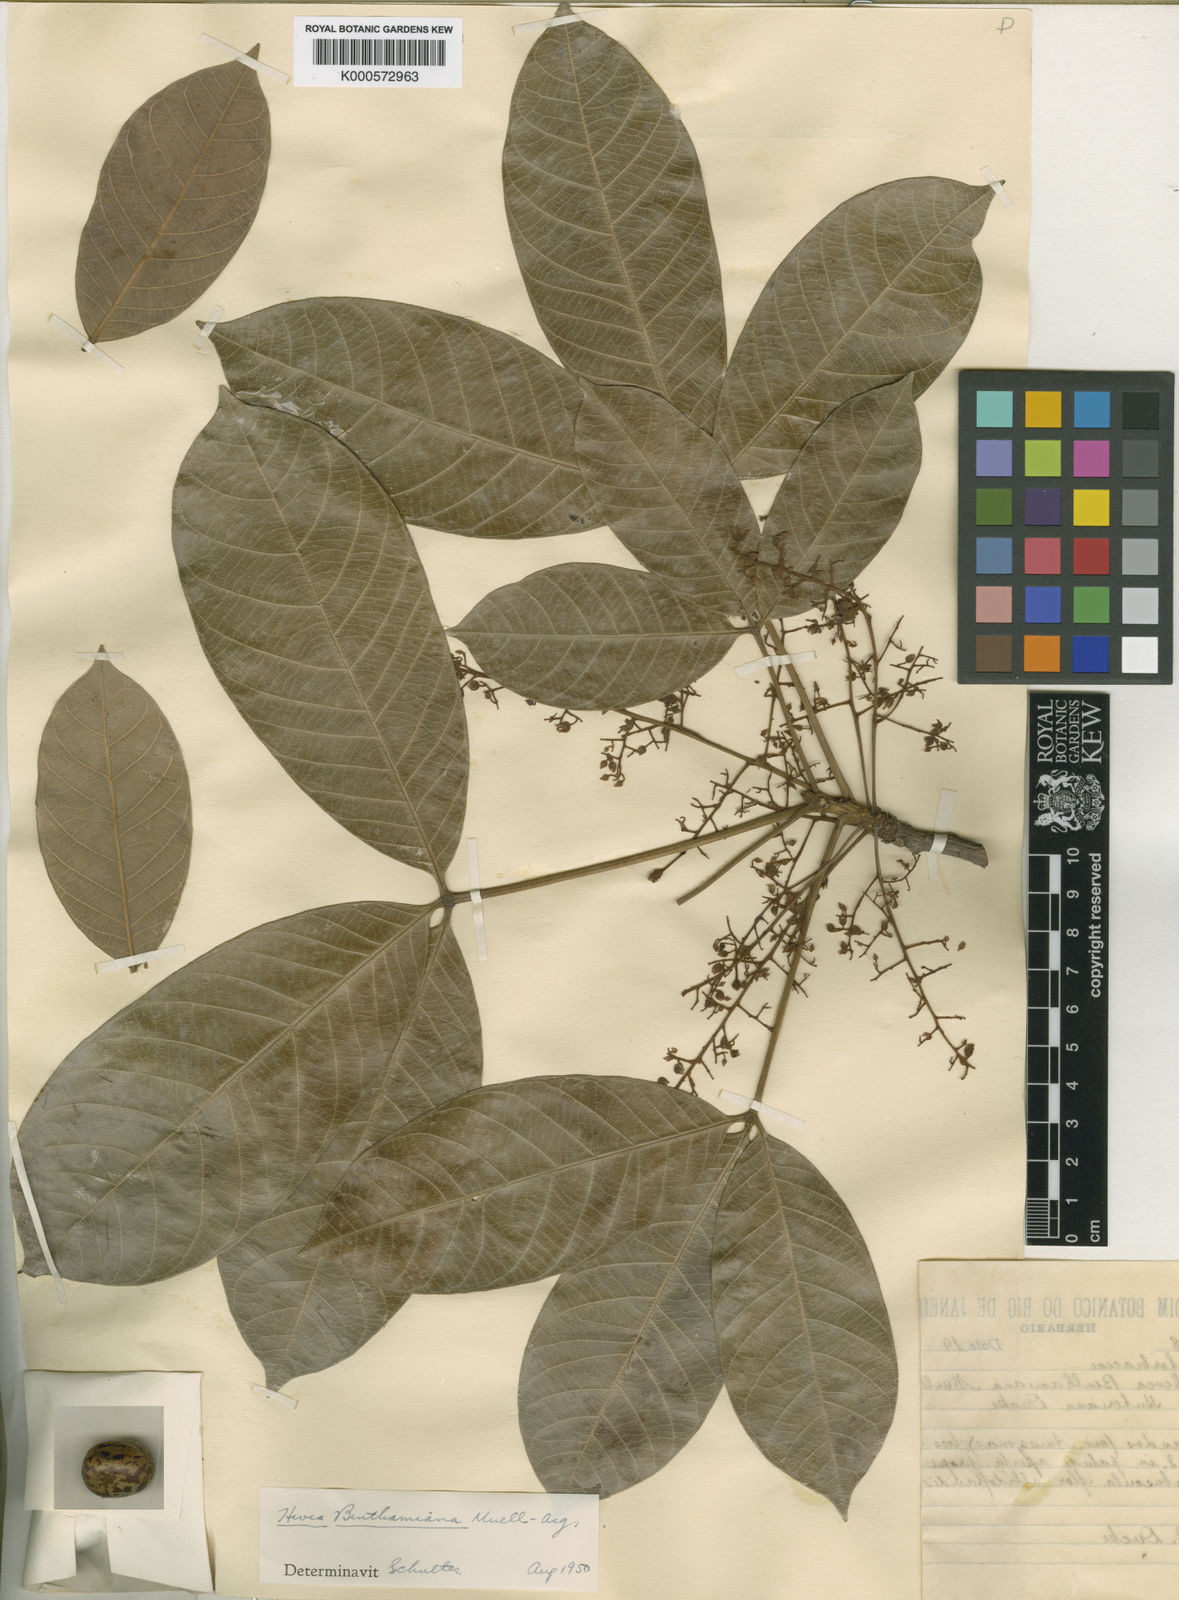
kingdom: Plantae
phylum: Tracheophyta
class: Magnoliopsida
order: Malpighiales
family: Euphorbiaceae
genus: Hevea
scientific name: Hevea benthamiana
